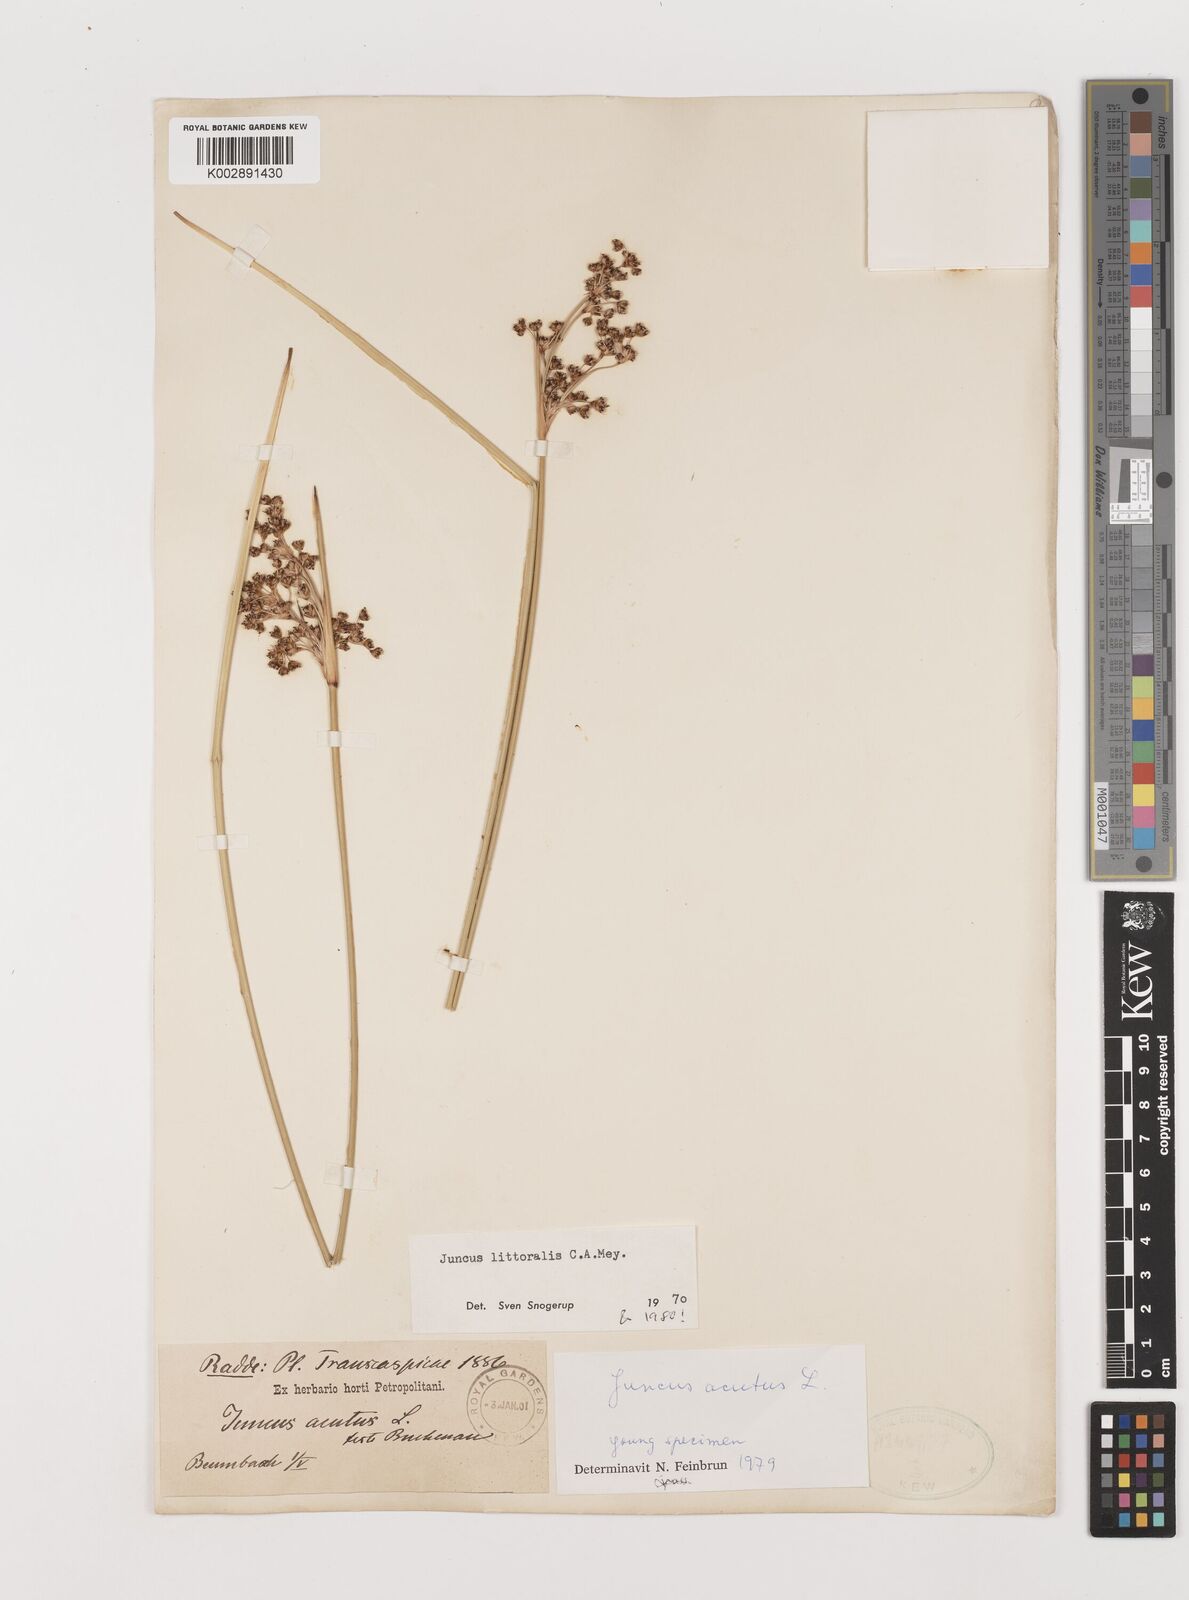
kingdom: Plantae
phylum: Tracheophyta
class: Liliopsida
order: Poales
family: Juncaceae
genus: Juncus
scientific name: Juncus littoralis
